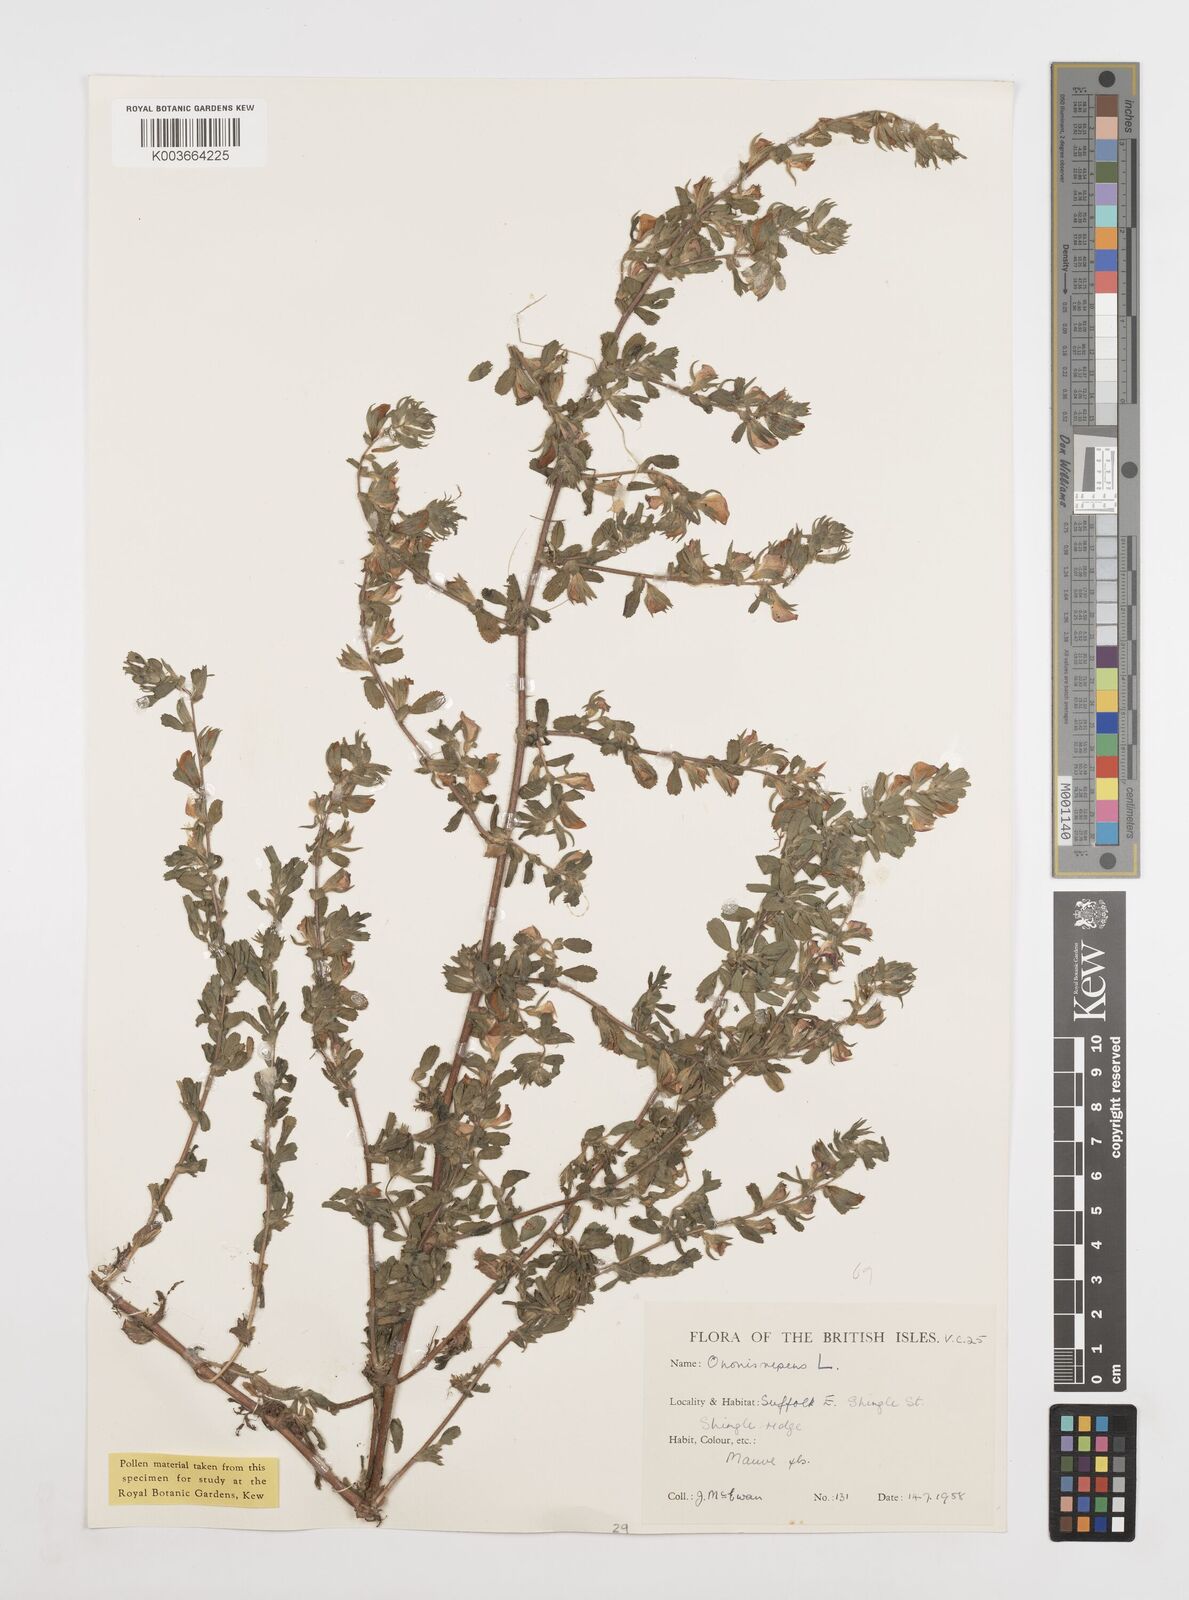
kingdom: Plantae
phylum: Tracheophyta
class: Magnoliopsida
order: Fabales
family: Fabaceae
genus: Ononis
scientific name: Ononis spinosa
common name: Spiny restharrow
